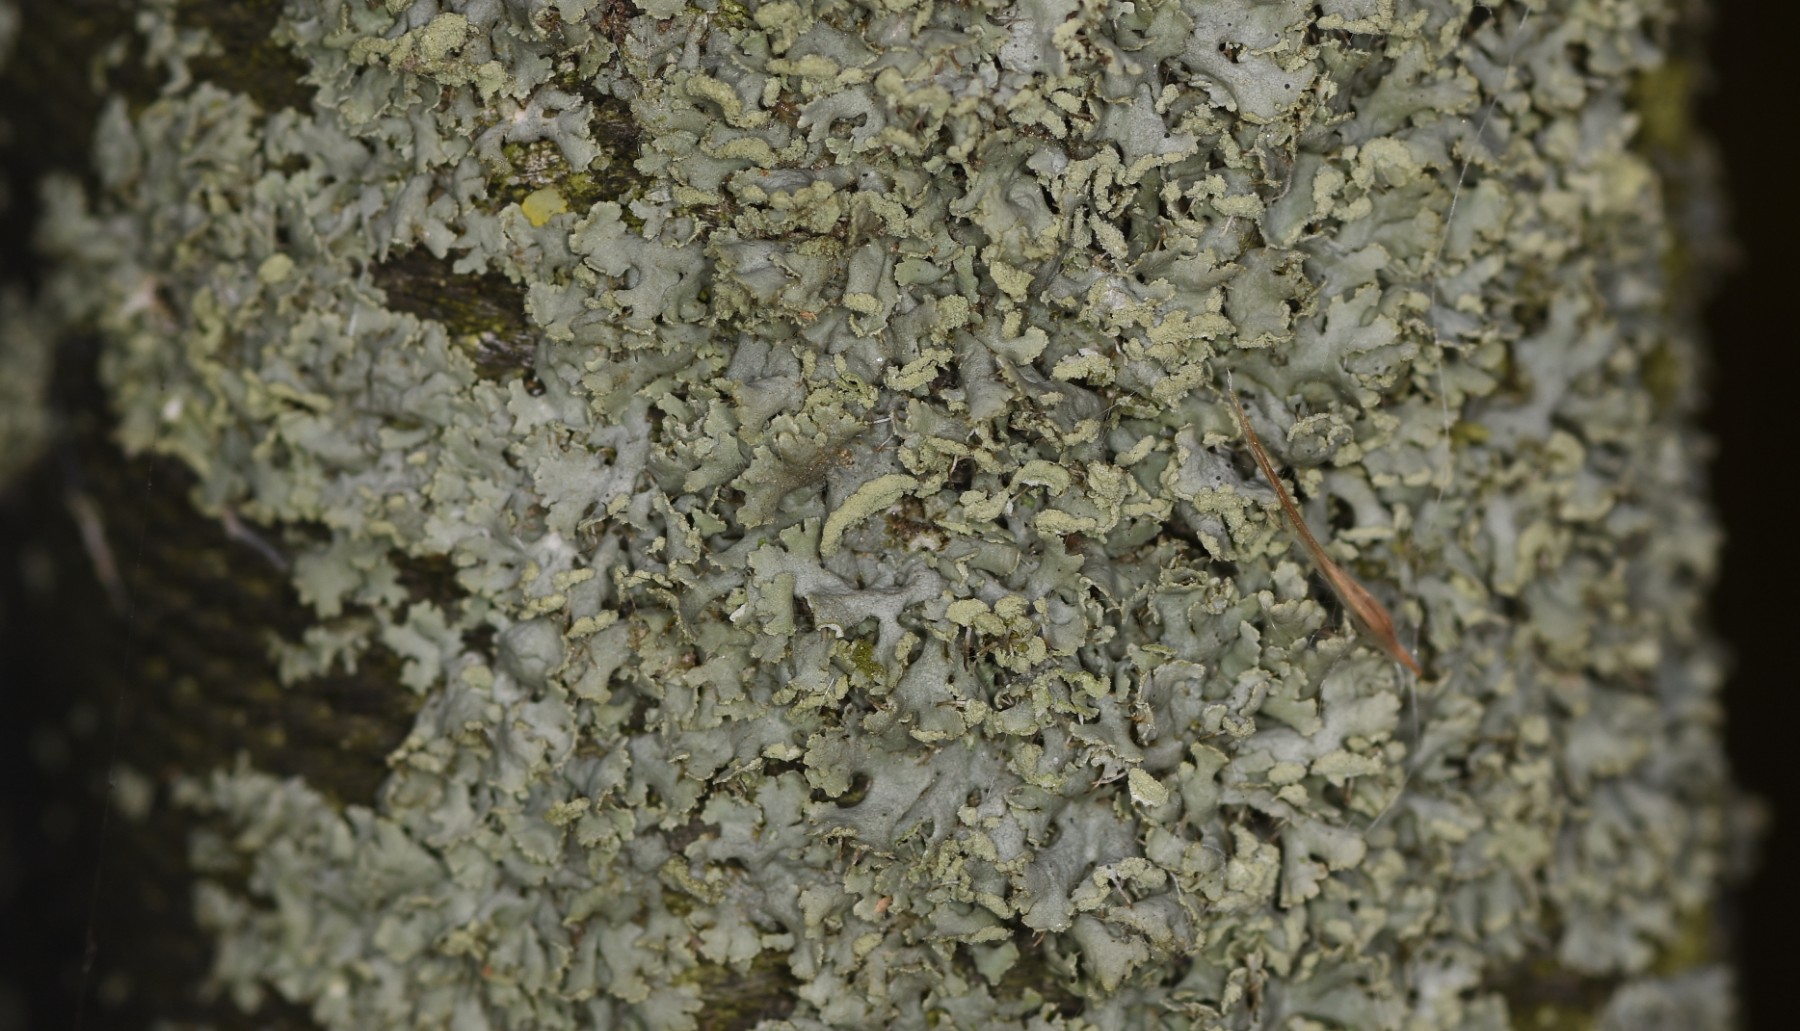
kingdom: Fungi
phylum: Ascomycota
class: Lecanoromycetes
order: Caliciales
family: Physciaceae
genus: Physcia
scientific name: Physcia tenella
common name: spæd rosetlav
